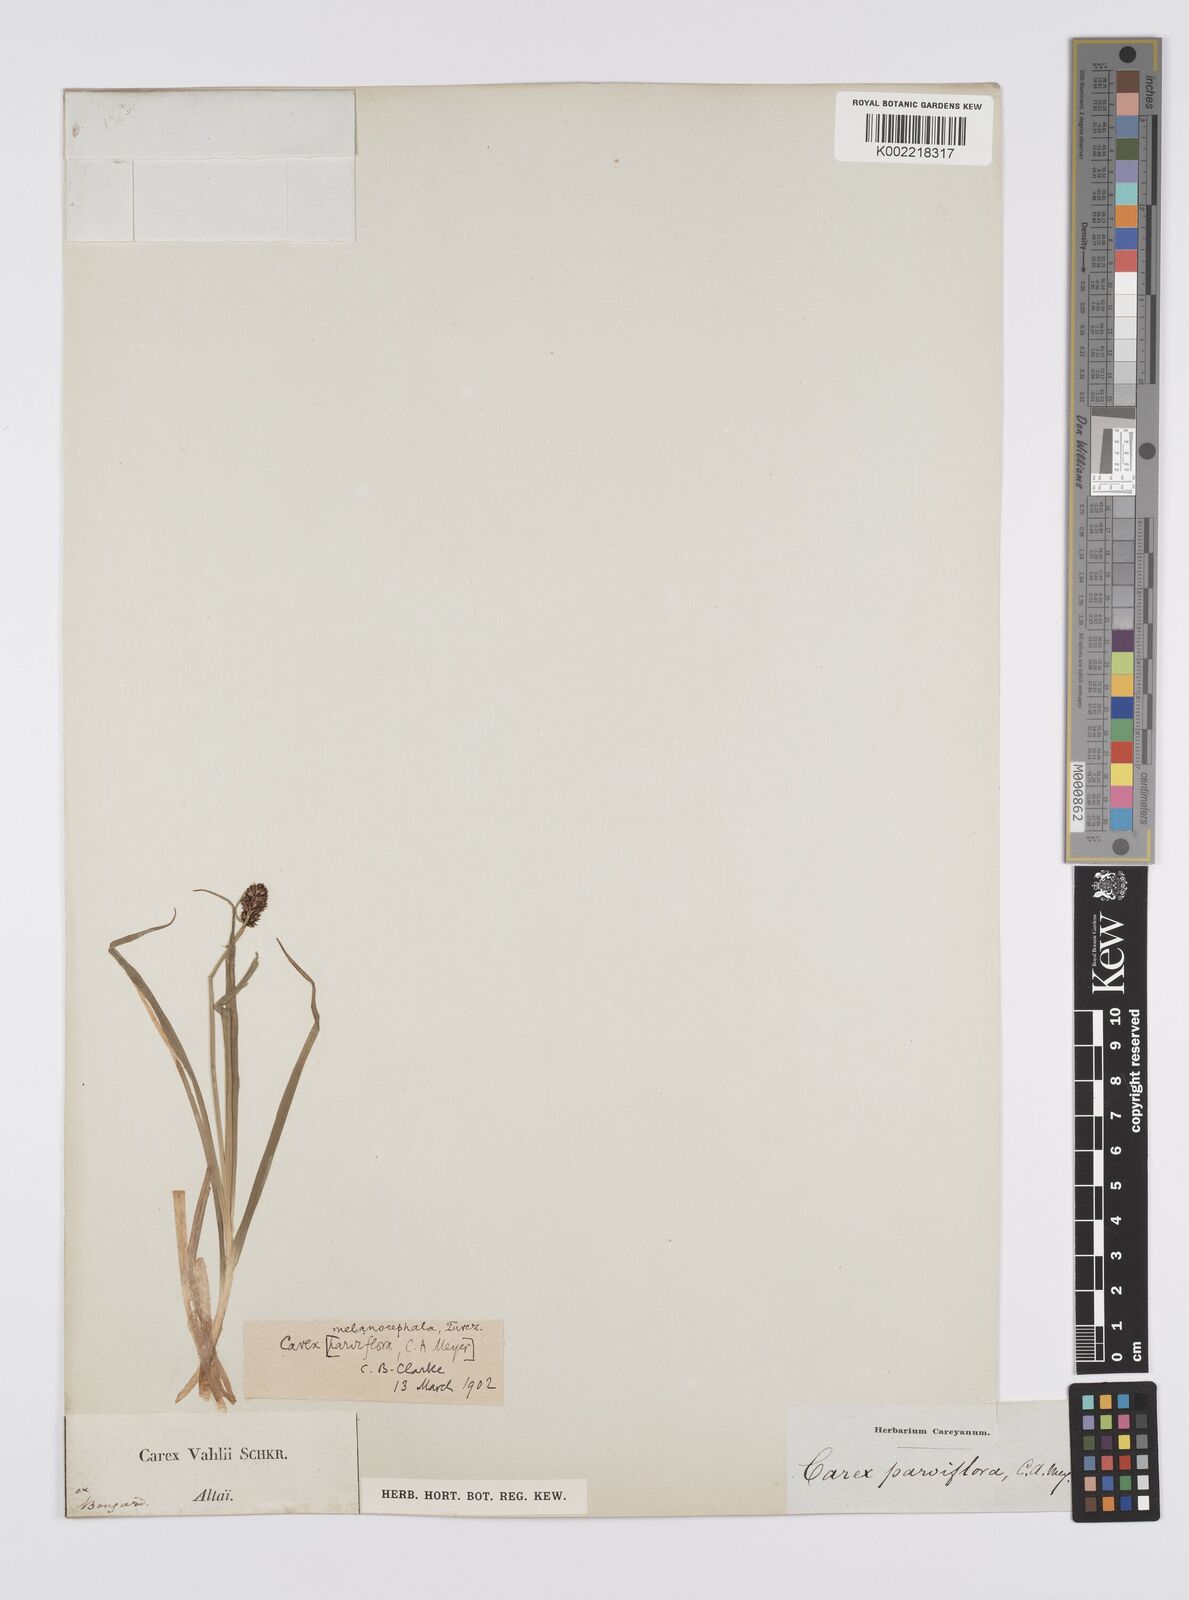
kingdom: Plantae
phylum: Tracheophyta
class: Liliopsida
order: Poales
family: Cyperaceae
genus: Carex
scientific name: Carex melanocephala
